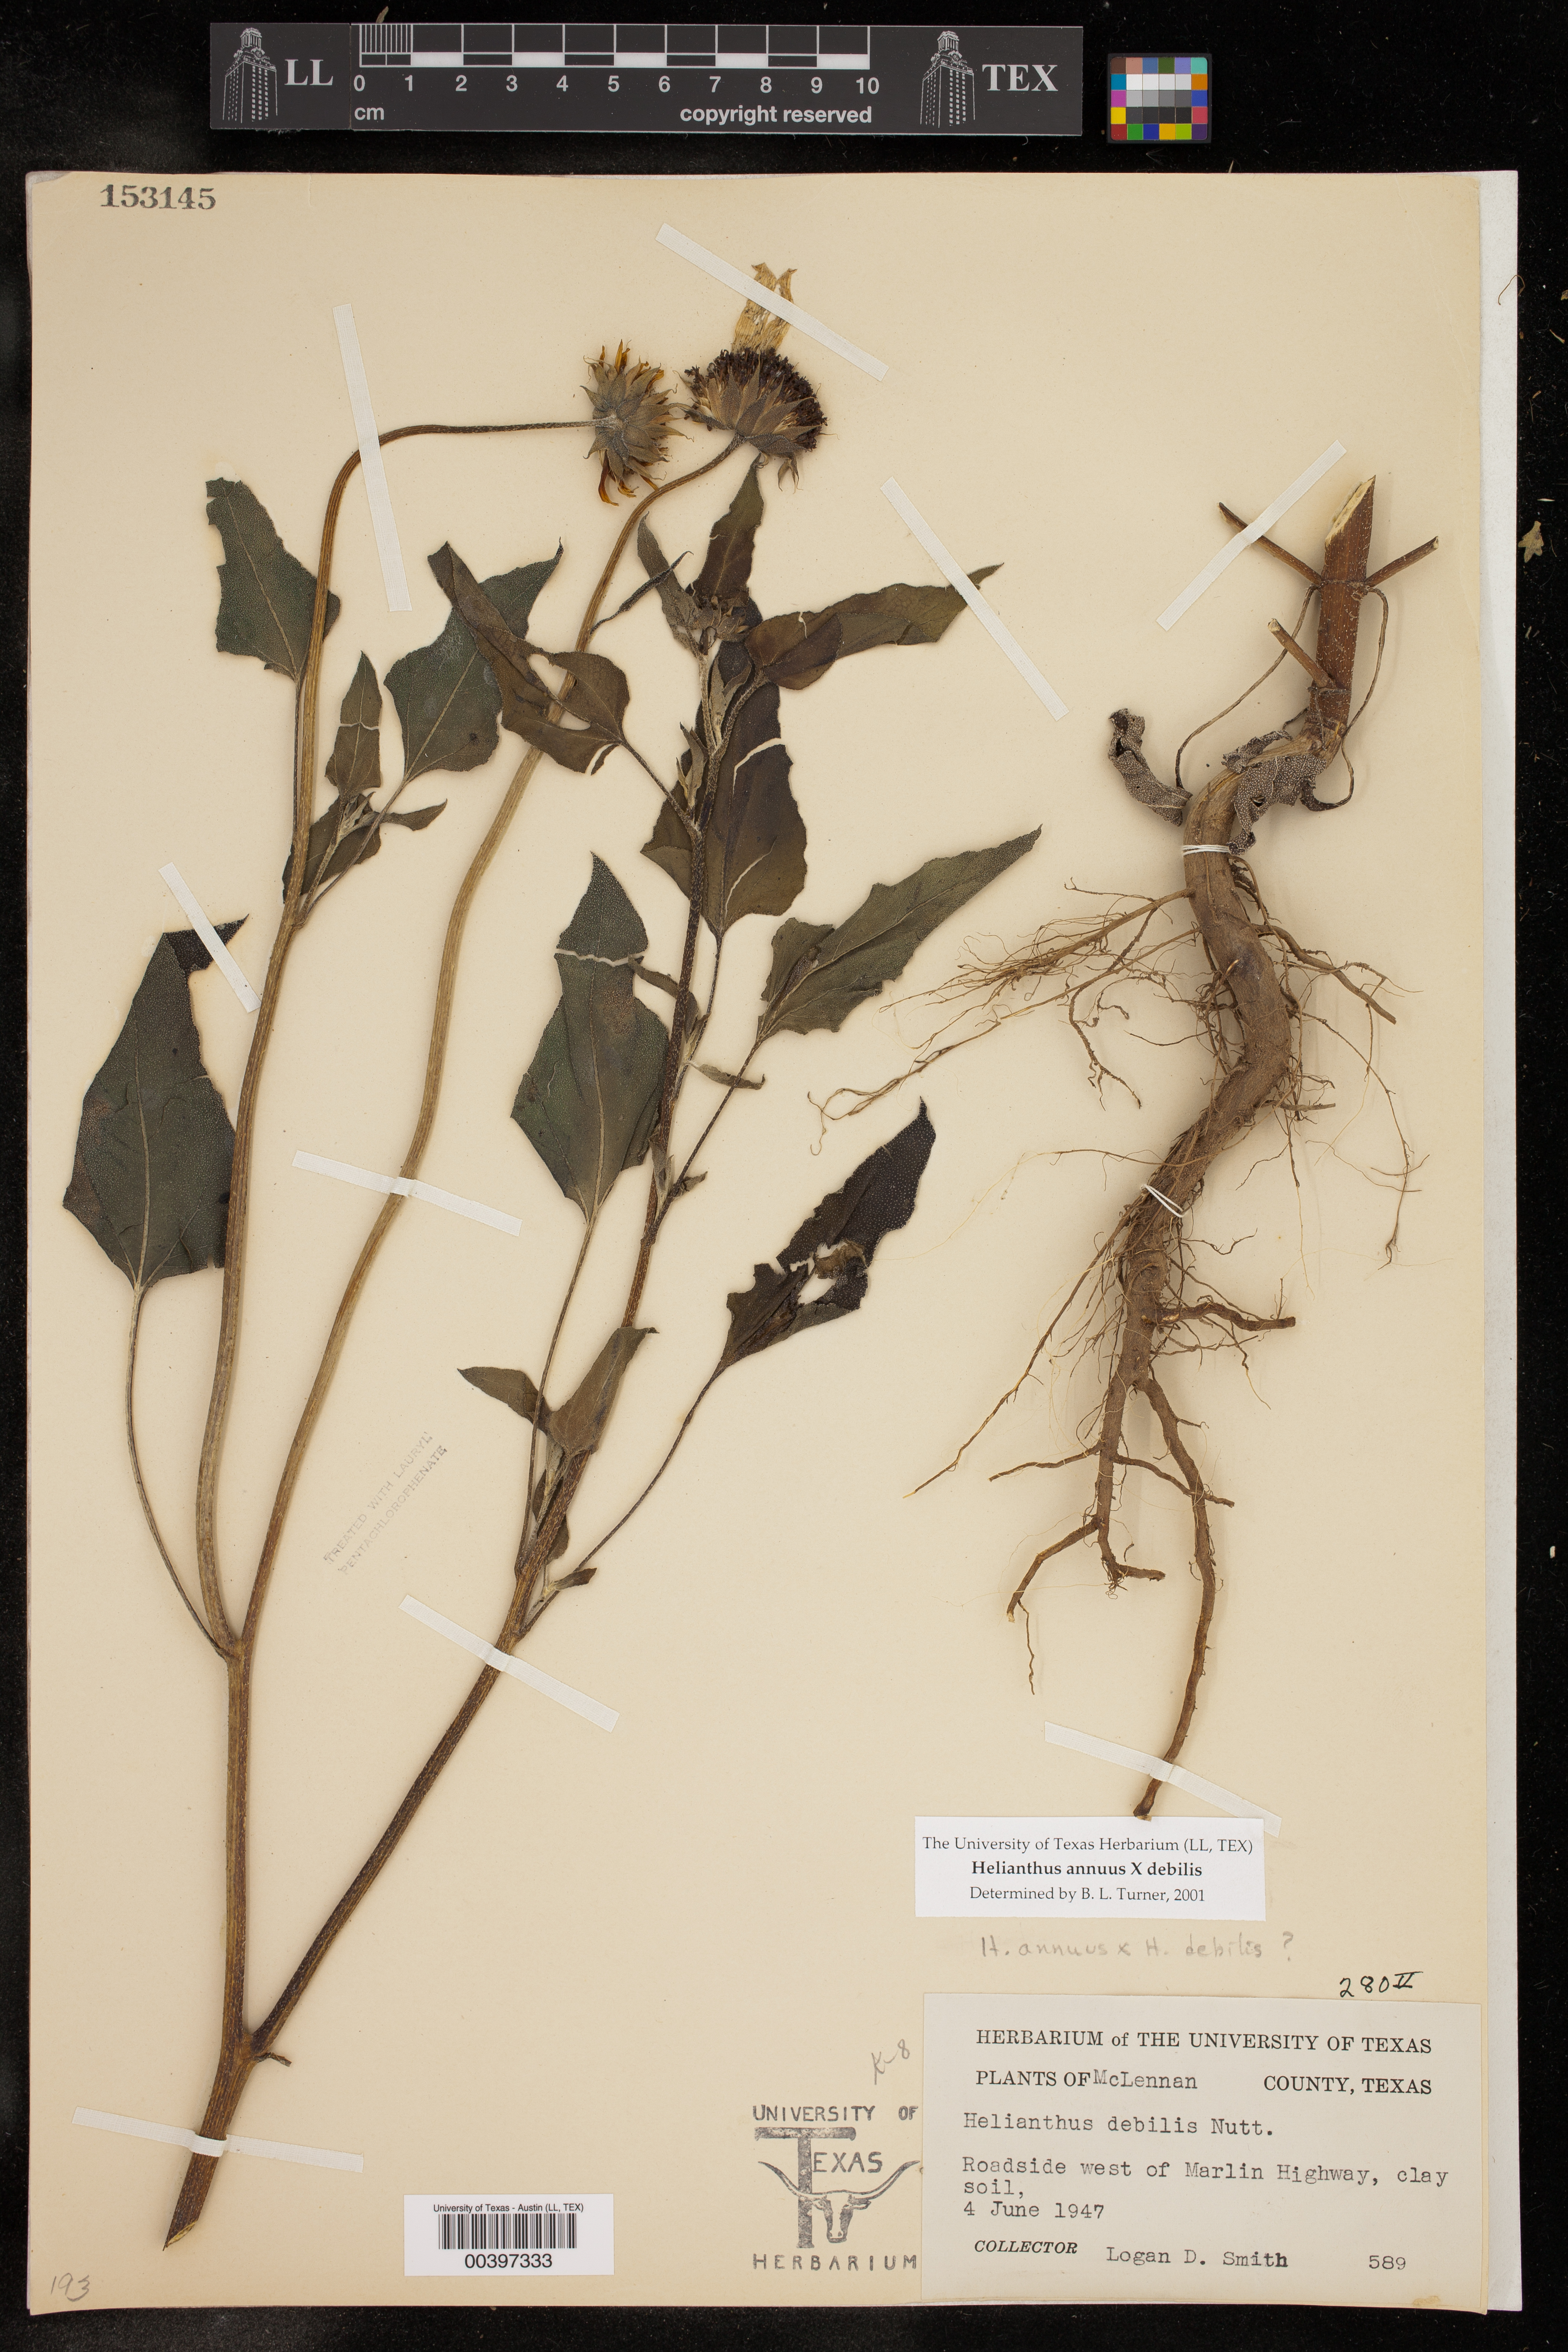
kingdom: Plantae
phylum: Tracheophyta
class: Magnoliopsida
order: Asterales
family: Asteraceae
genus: Helianthus
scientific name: Helianthus
